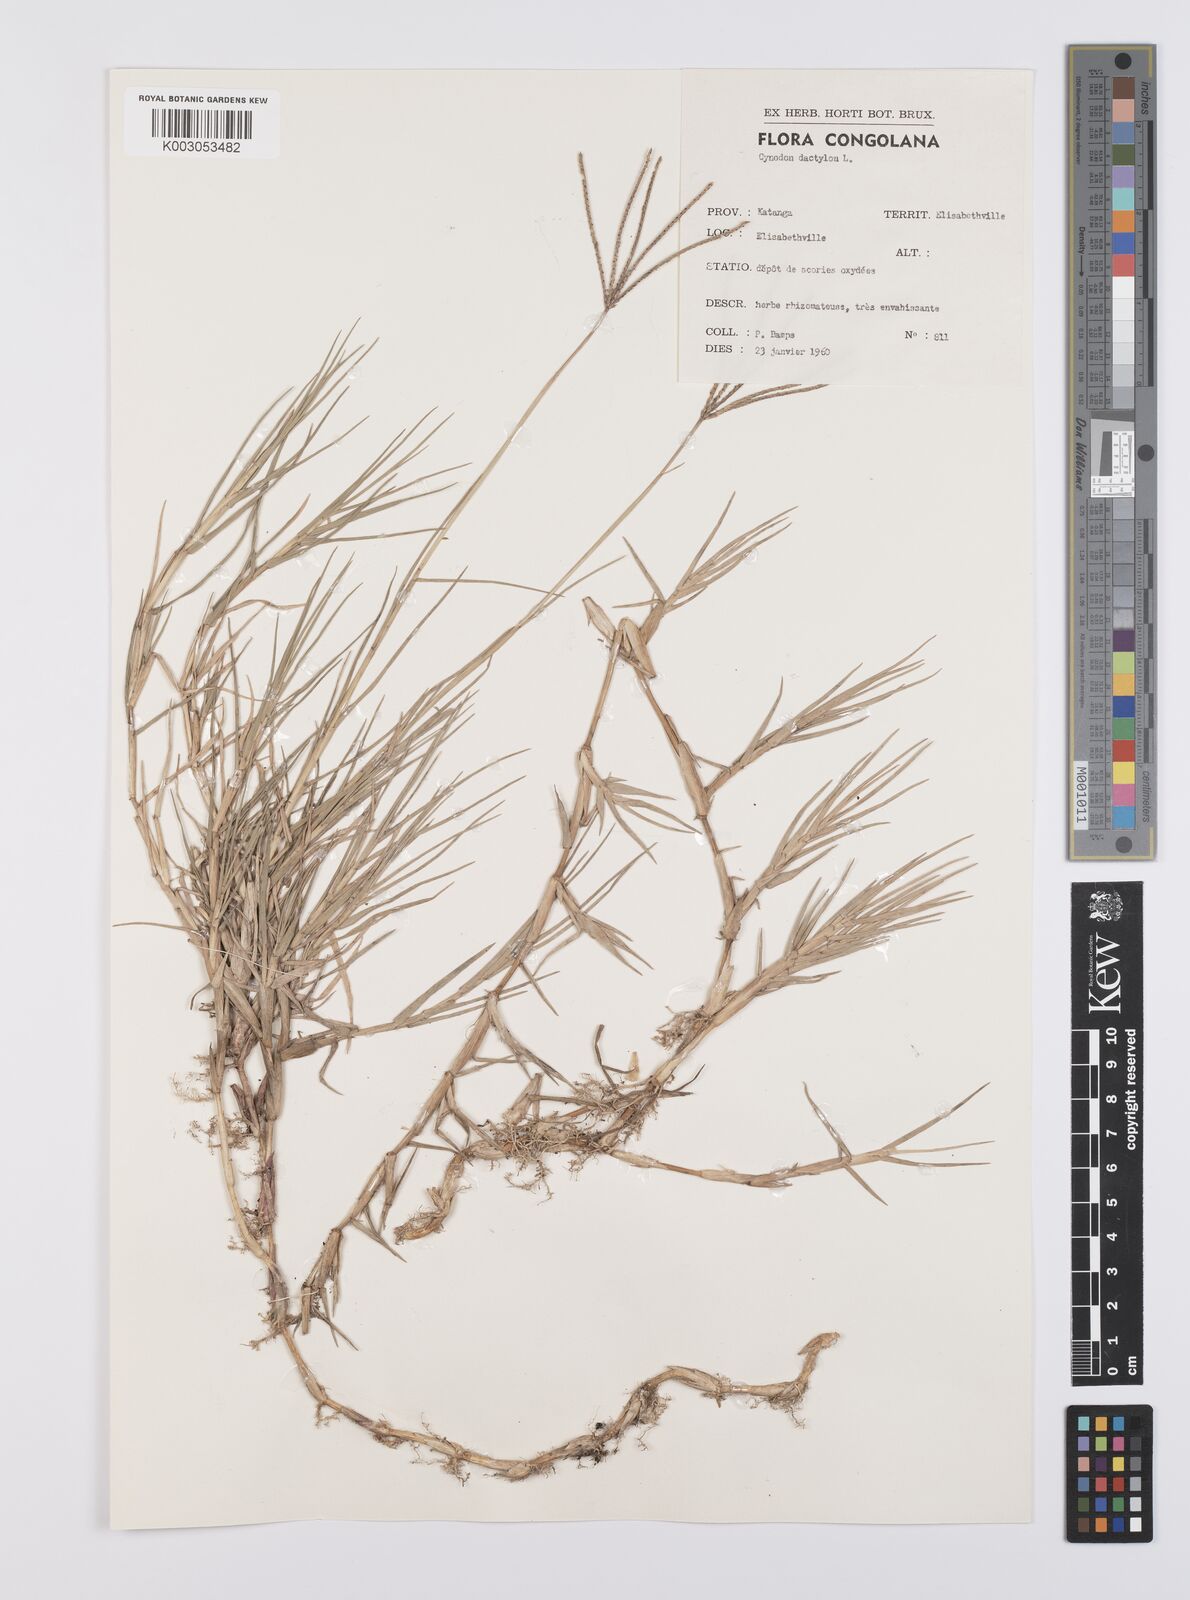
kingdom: Plantae
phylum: Tracheophyta
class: Liliopsida
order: Poales
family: Poaceae
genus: Cynodon
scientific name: Cynodon dactylon
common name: Bermuda grass
